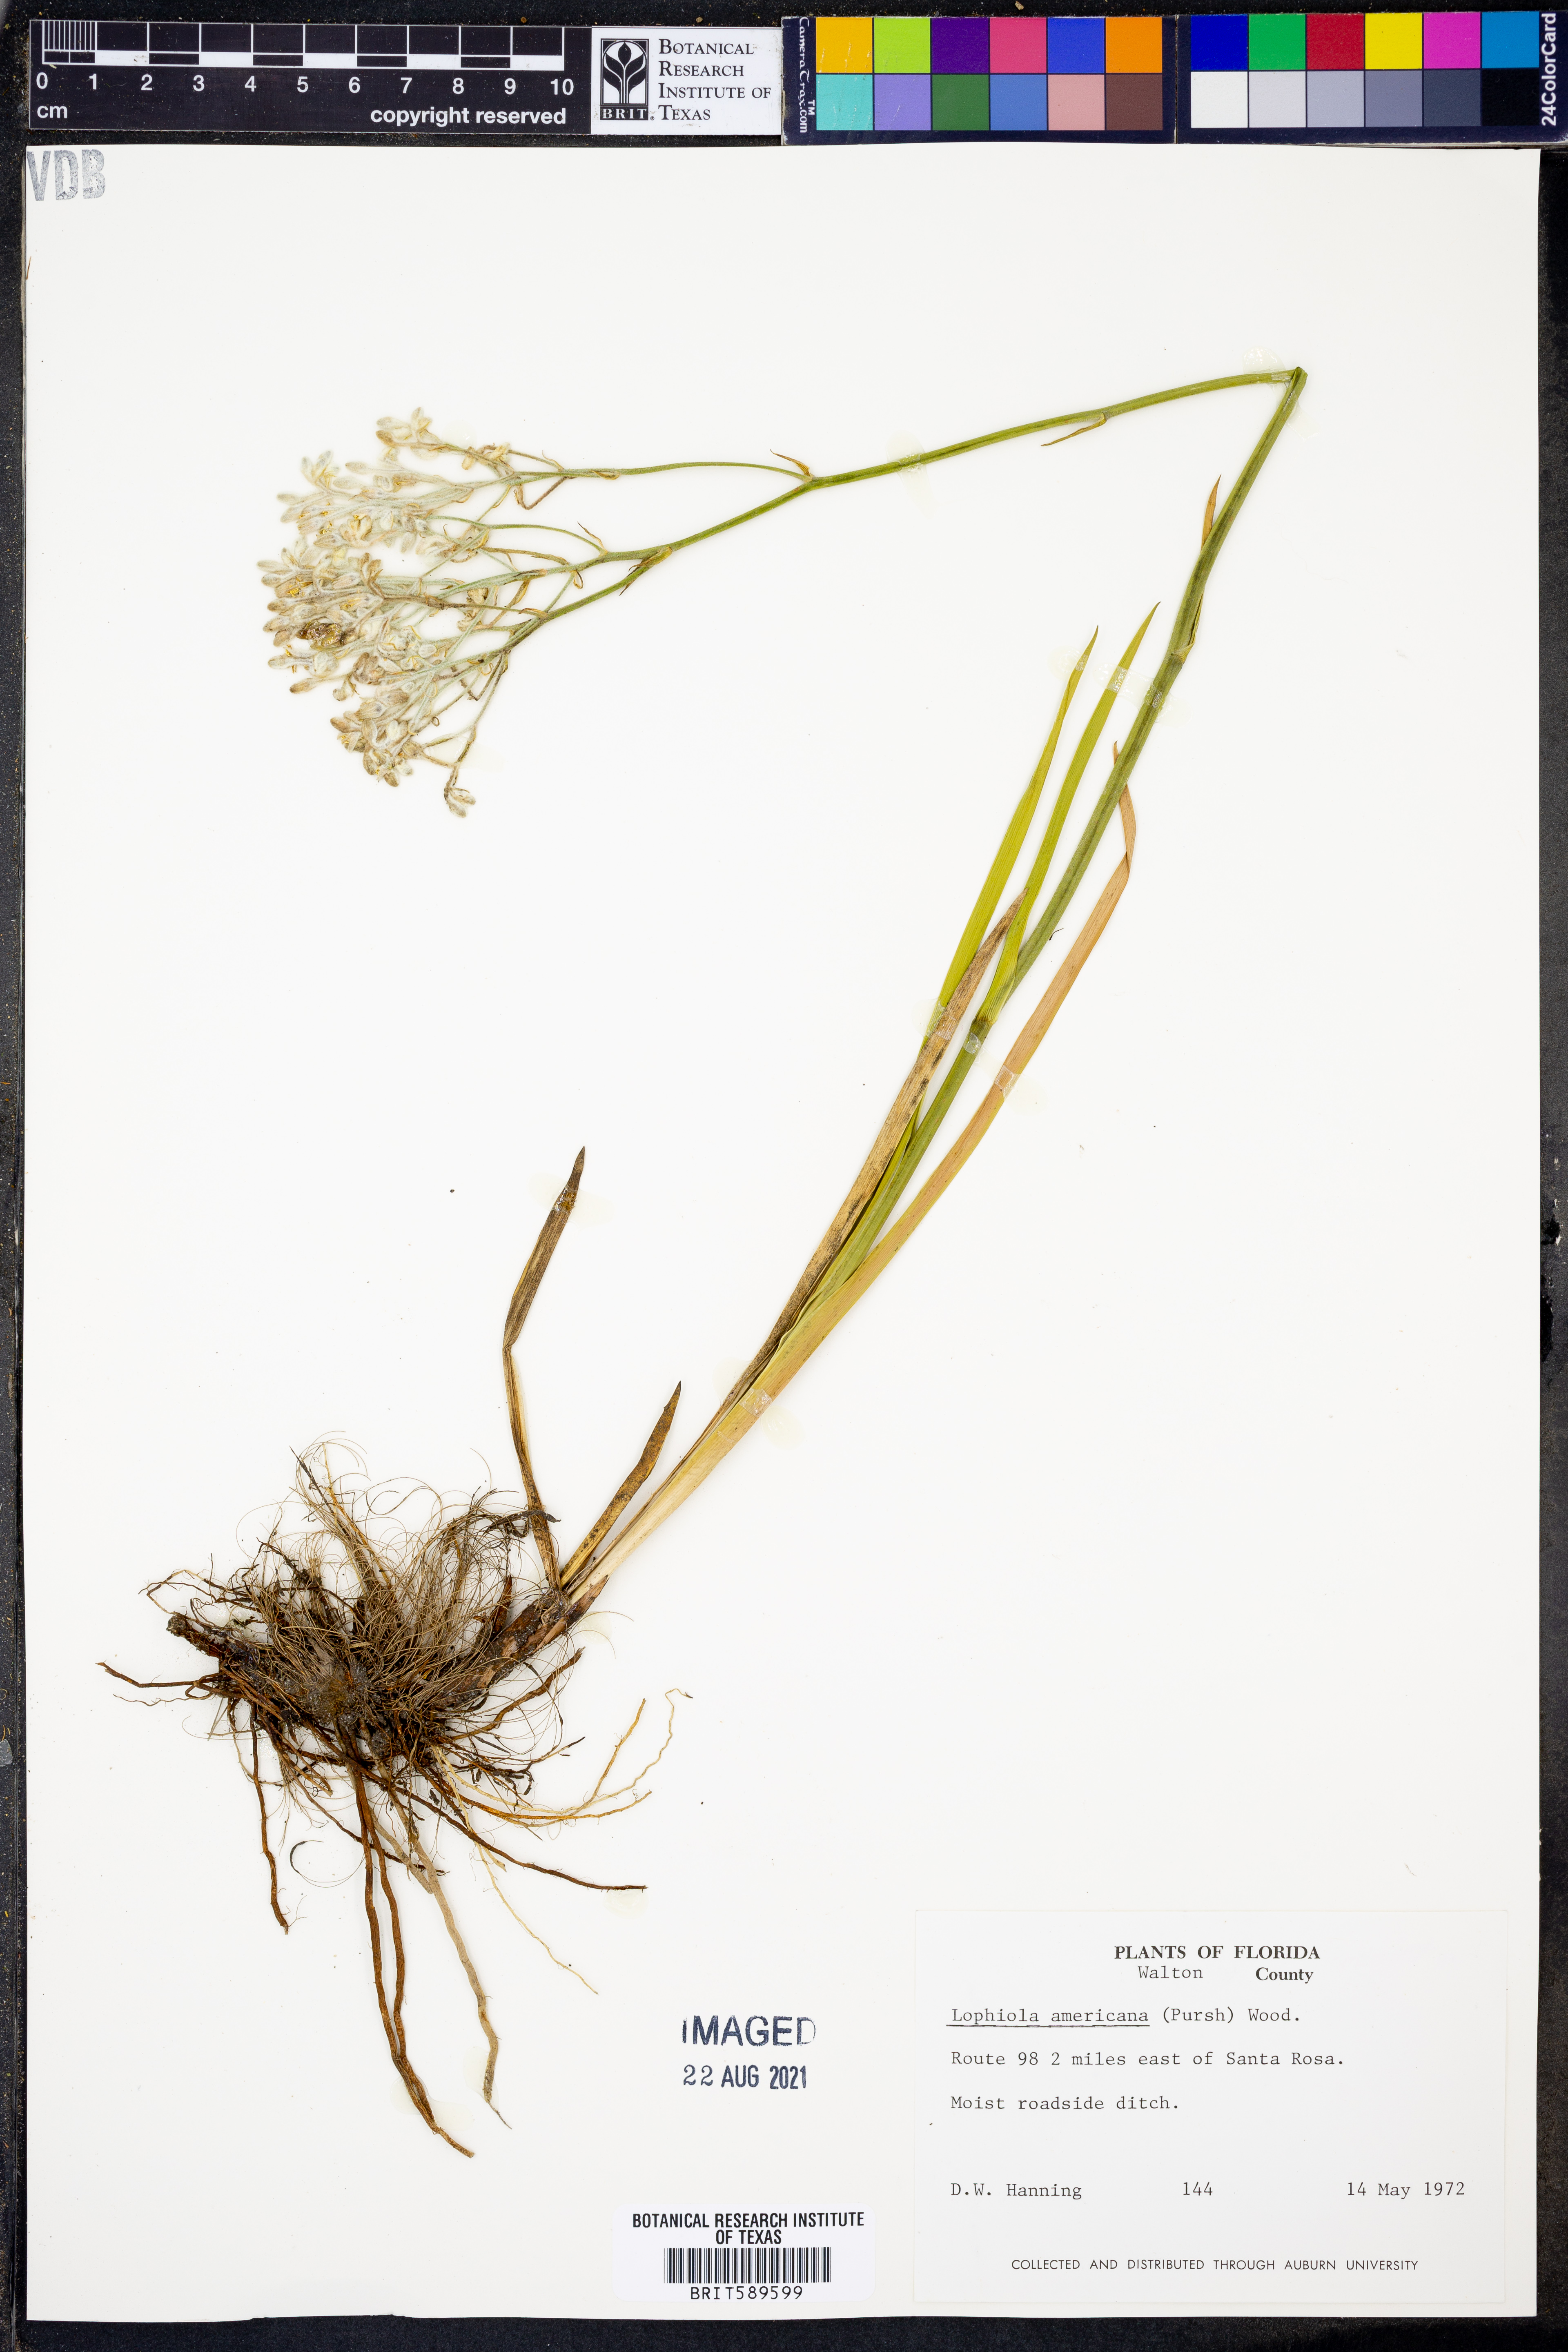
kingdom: Plantae
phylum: Tracheophyta
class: Liliopsida
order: Dioscoreales
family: Nartheciaceae
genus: Lophiola
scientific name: Lophiola aurea
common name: Golden-crest
